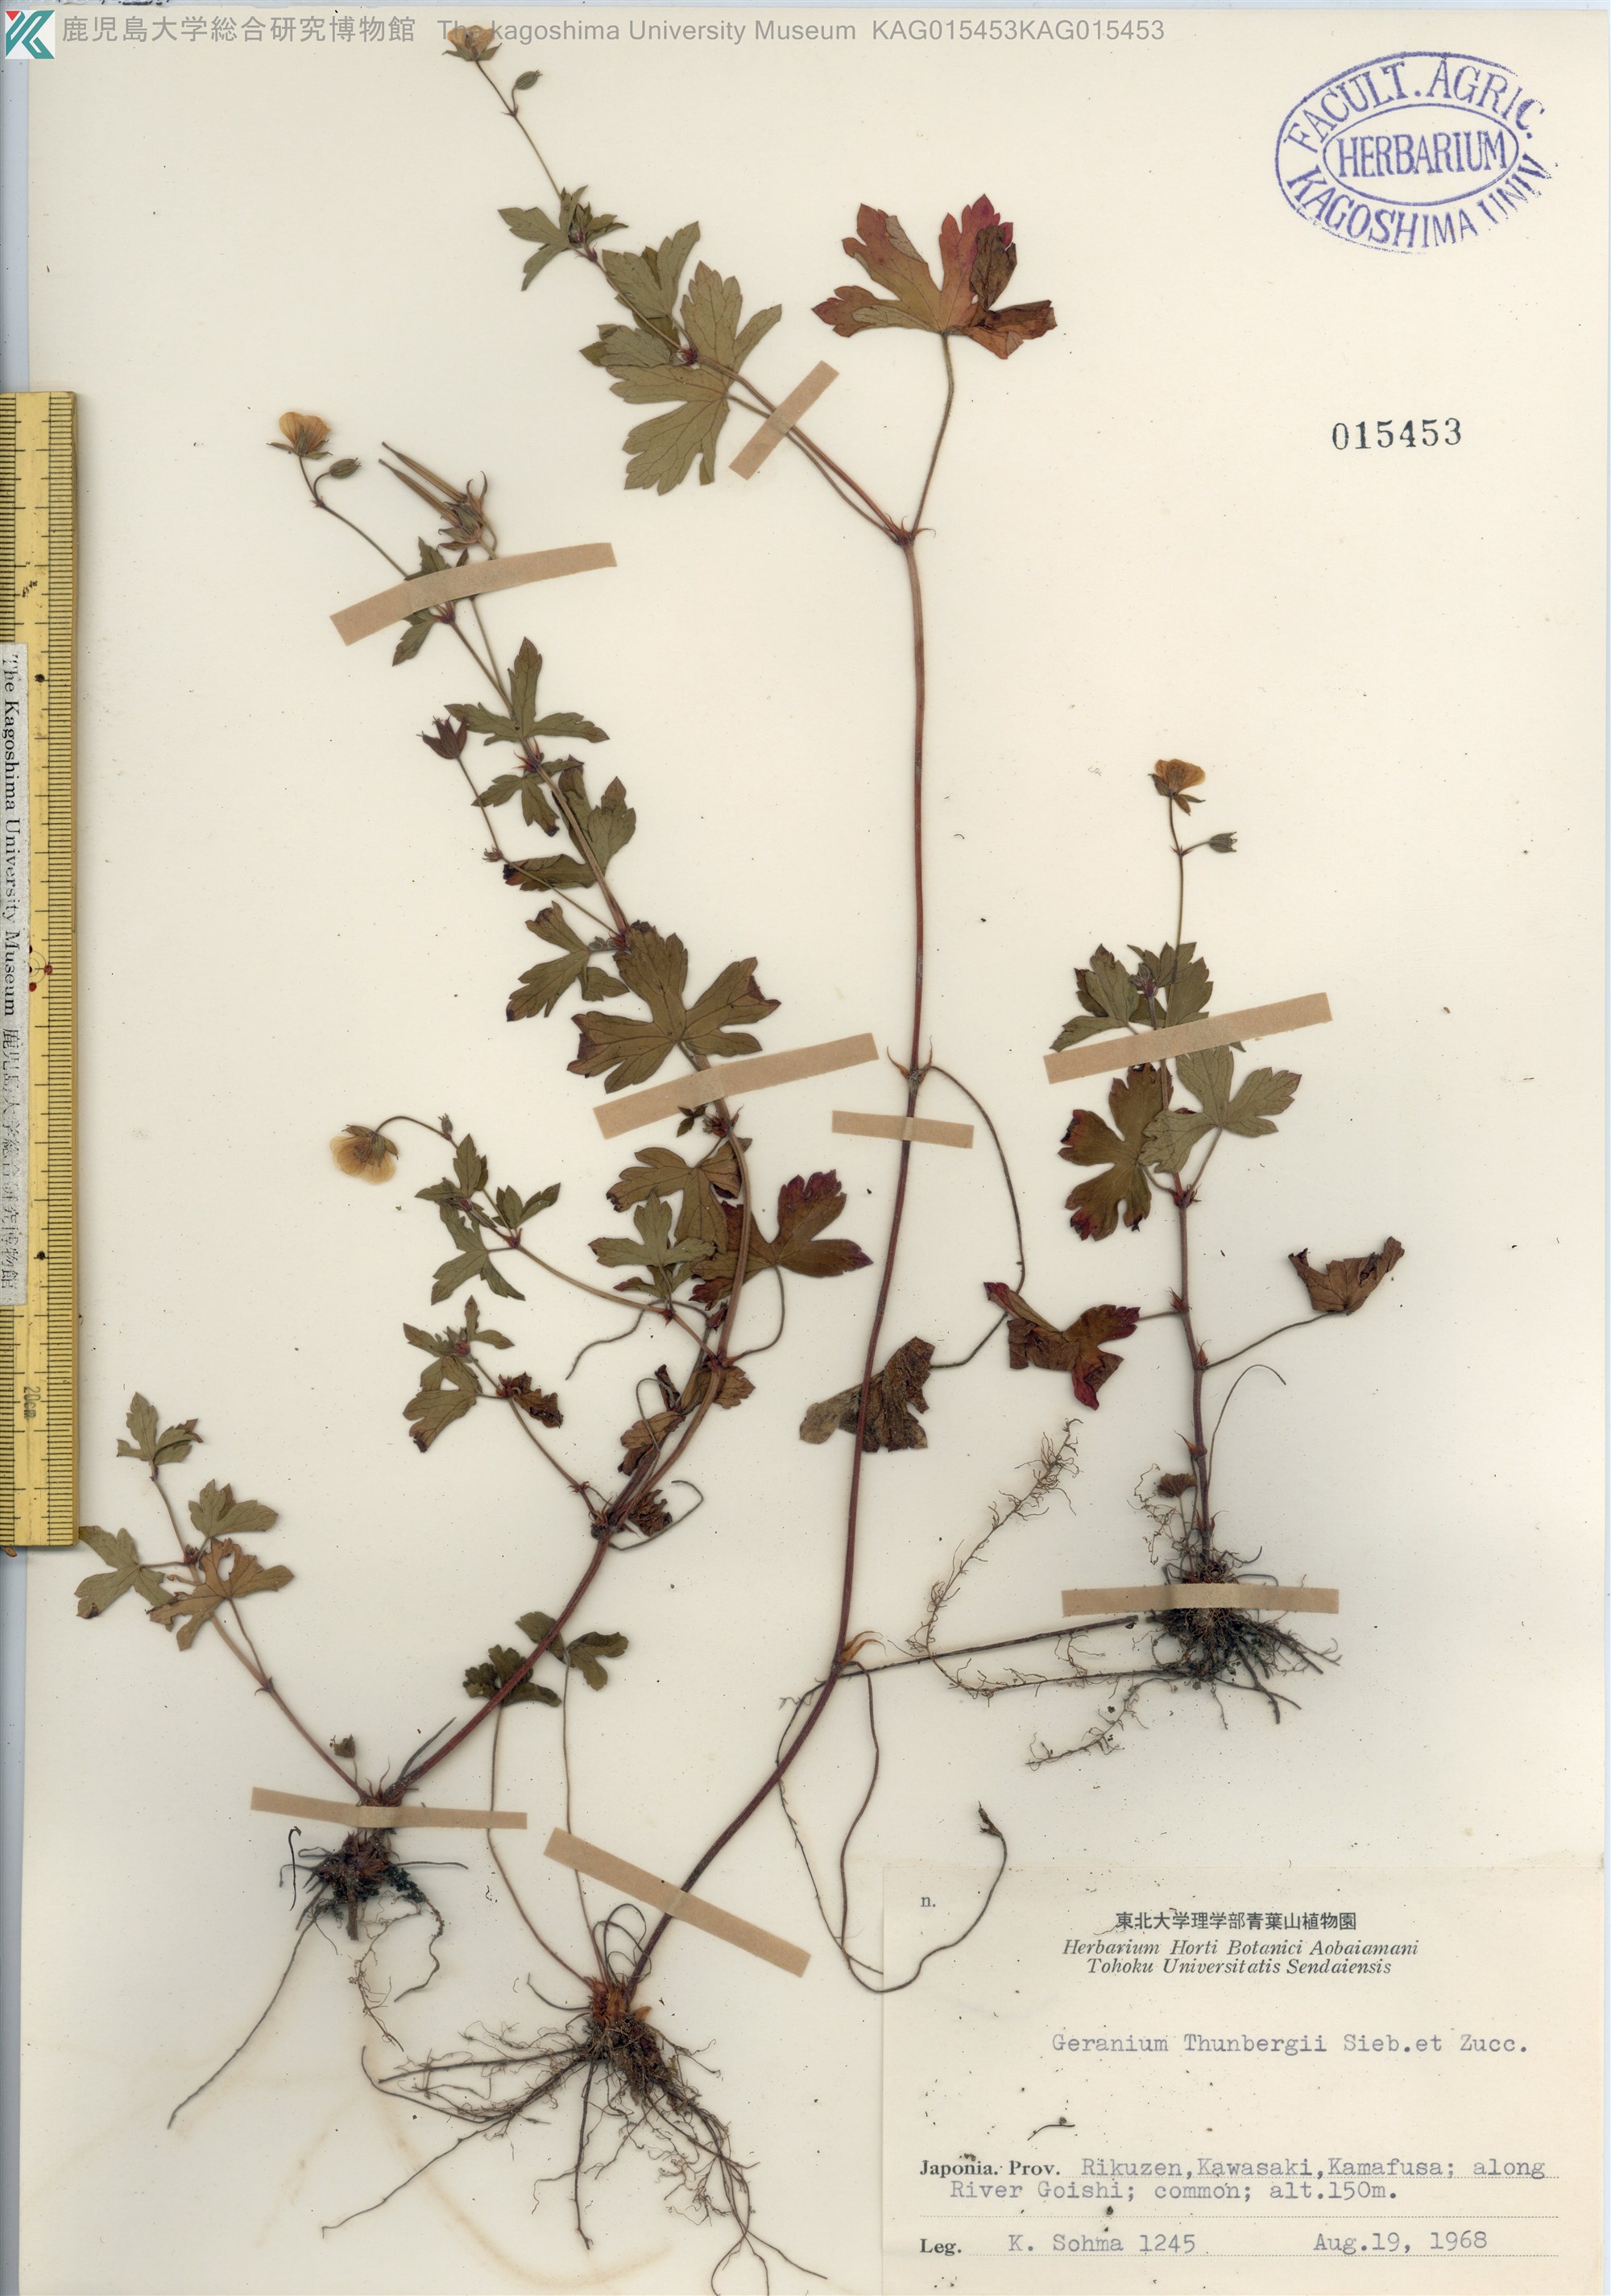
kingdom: Plantae
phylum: Tracheophyta
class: Magnoliopsida
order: Geraniales
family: Geraniaceae
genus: Geranium
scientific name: Geranium thunbergii
